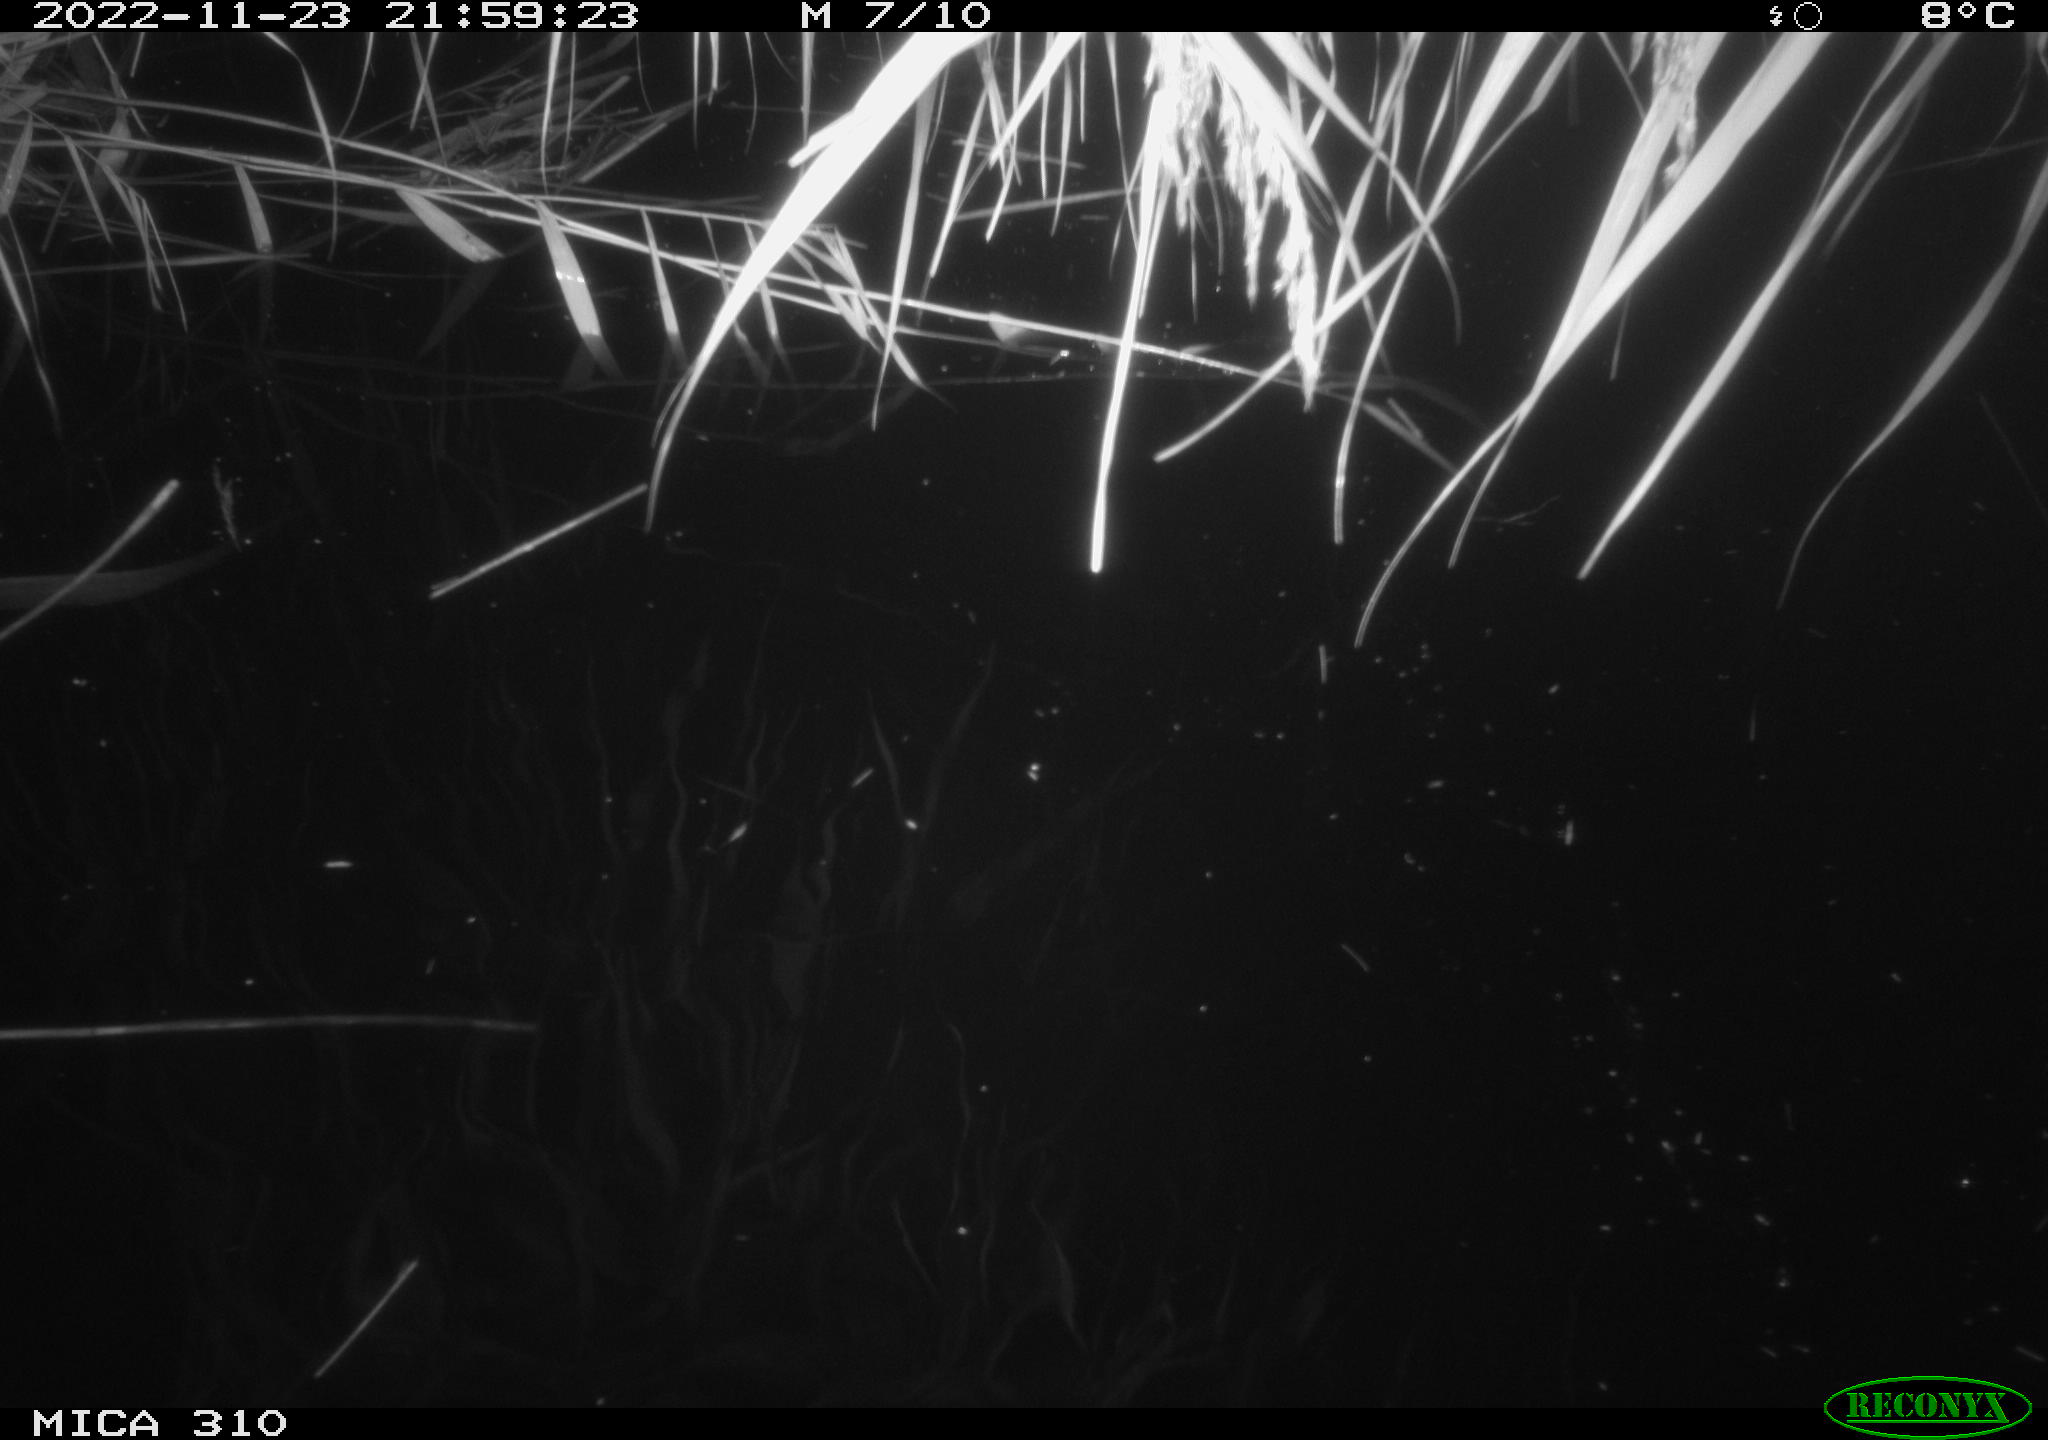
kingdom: Animalia
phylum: Chordata
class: Aves
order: Anseriformes
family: Anatidae
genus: Anas
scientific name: Anas
